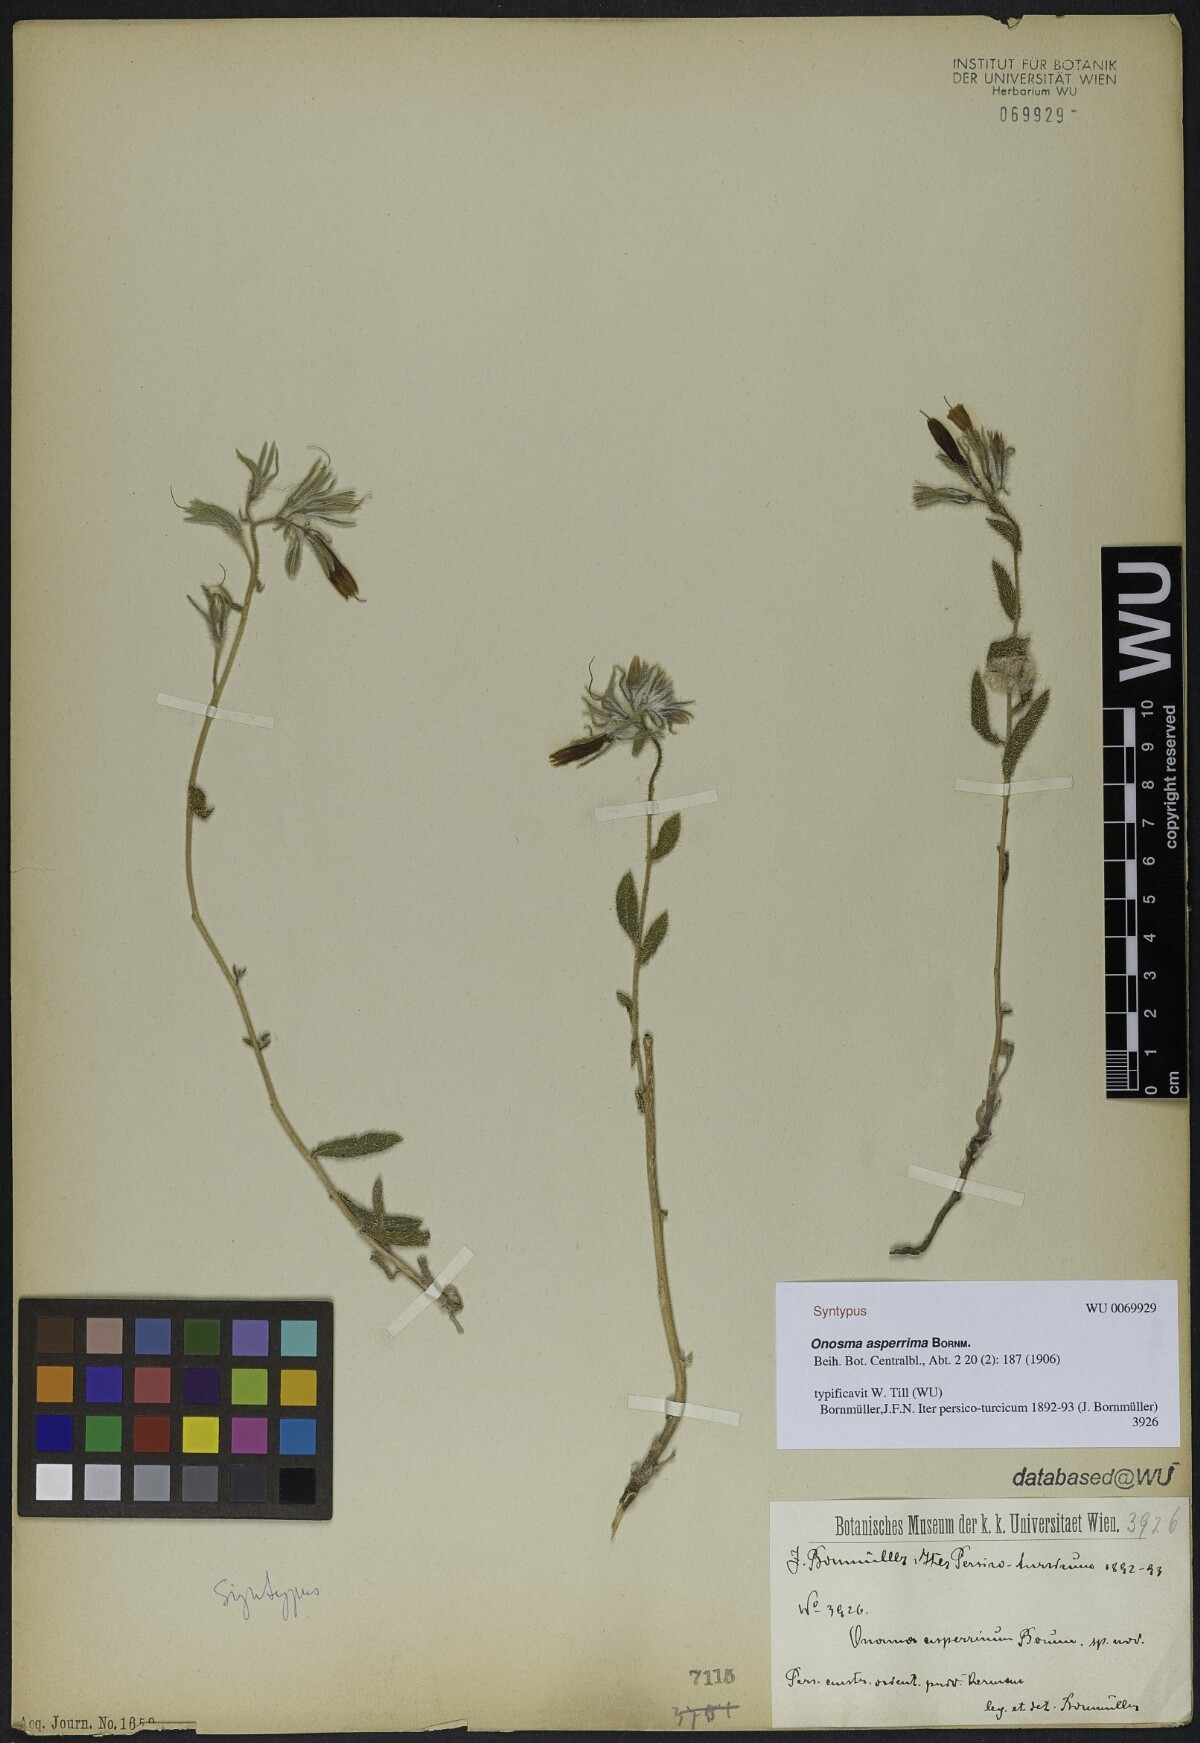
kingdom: Plantae
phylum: Tracheophyta
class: Magnoliopsida
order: Boraginales
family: Boraginaceae
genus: Onosma
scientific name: Onosma asperrima
